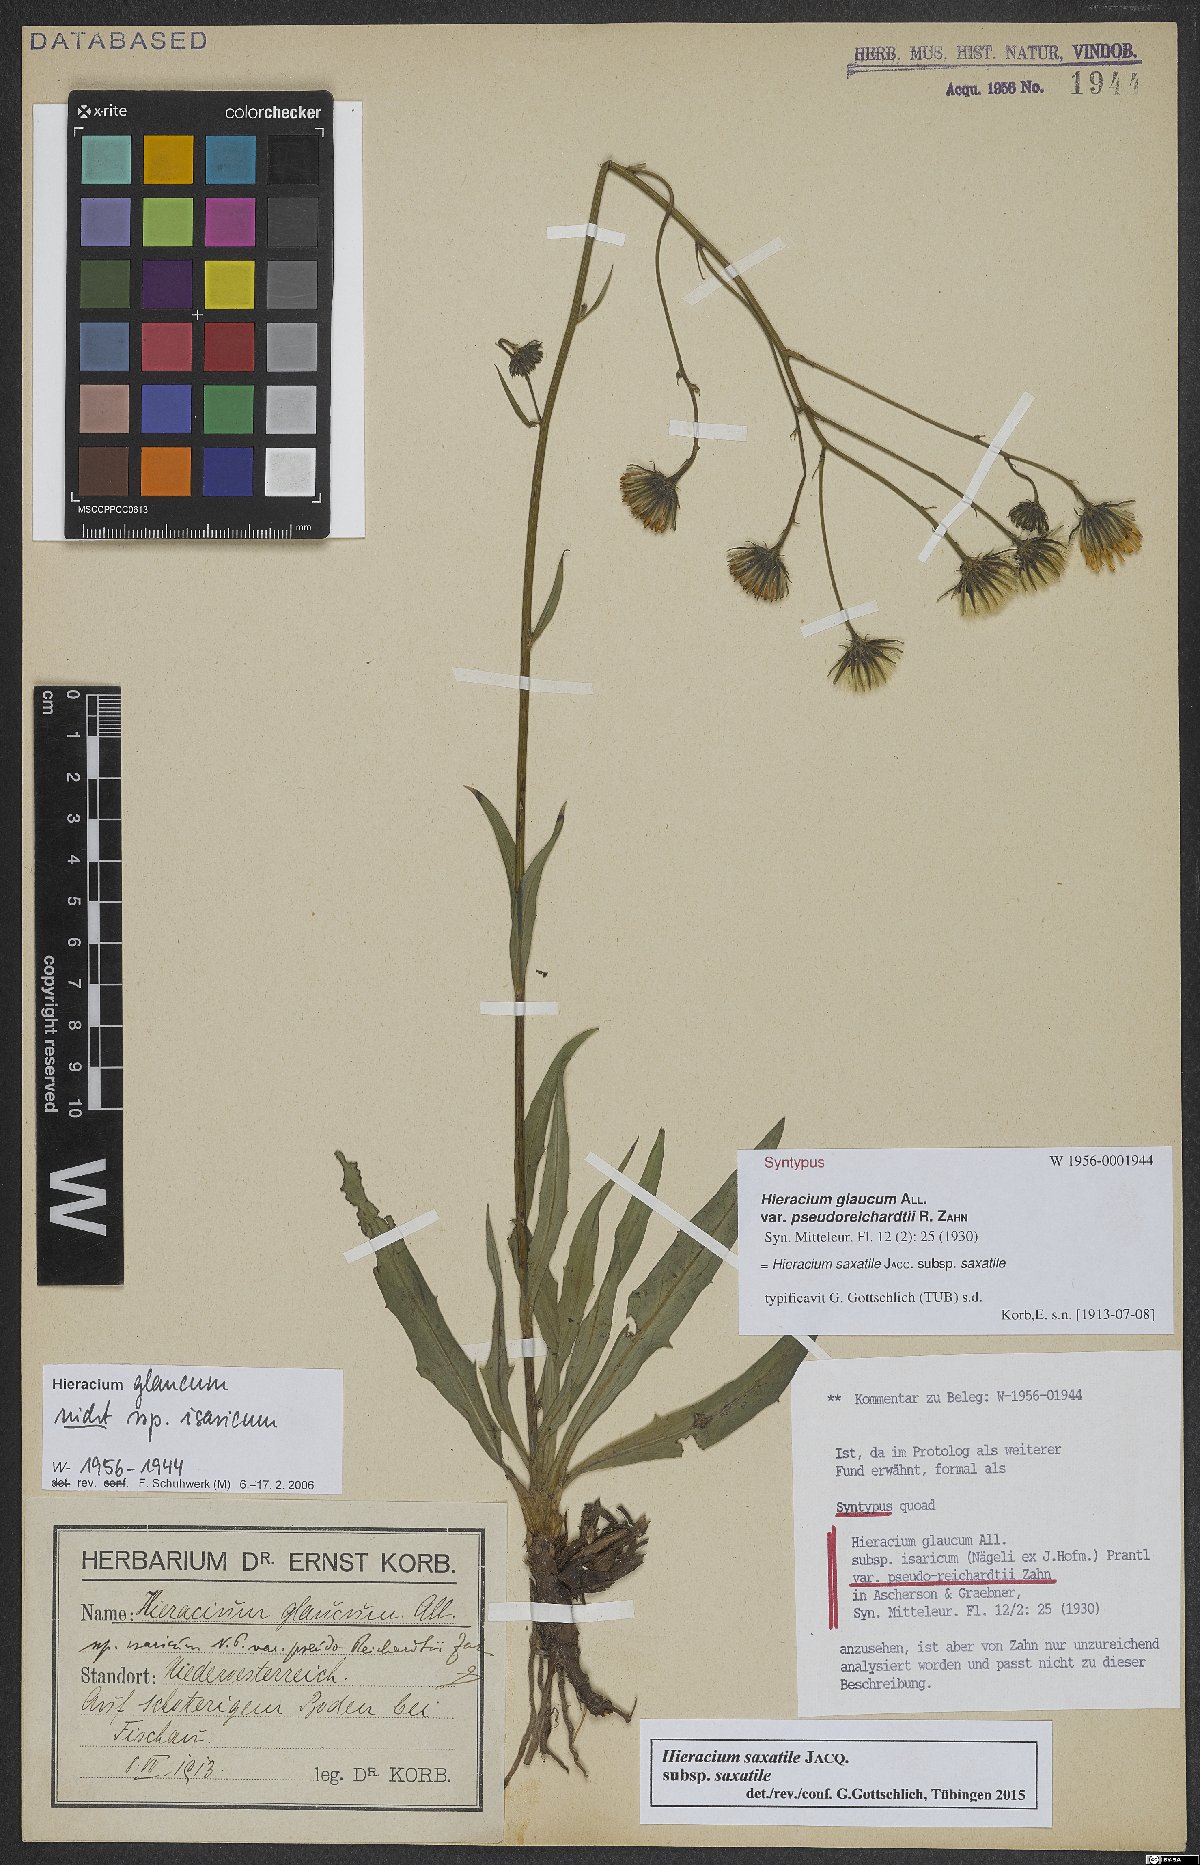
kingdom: Plantae
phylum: Tracheophyta
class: Magnoliopsida
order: Asterales
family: Asteraceae
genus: Hieracium
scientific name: Hieracium saxatile
